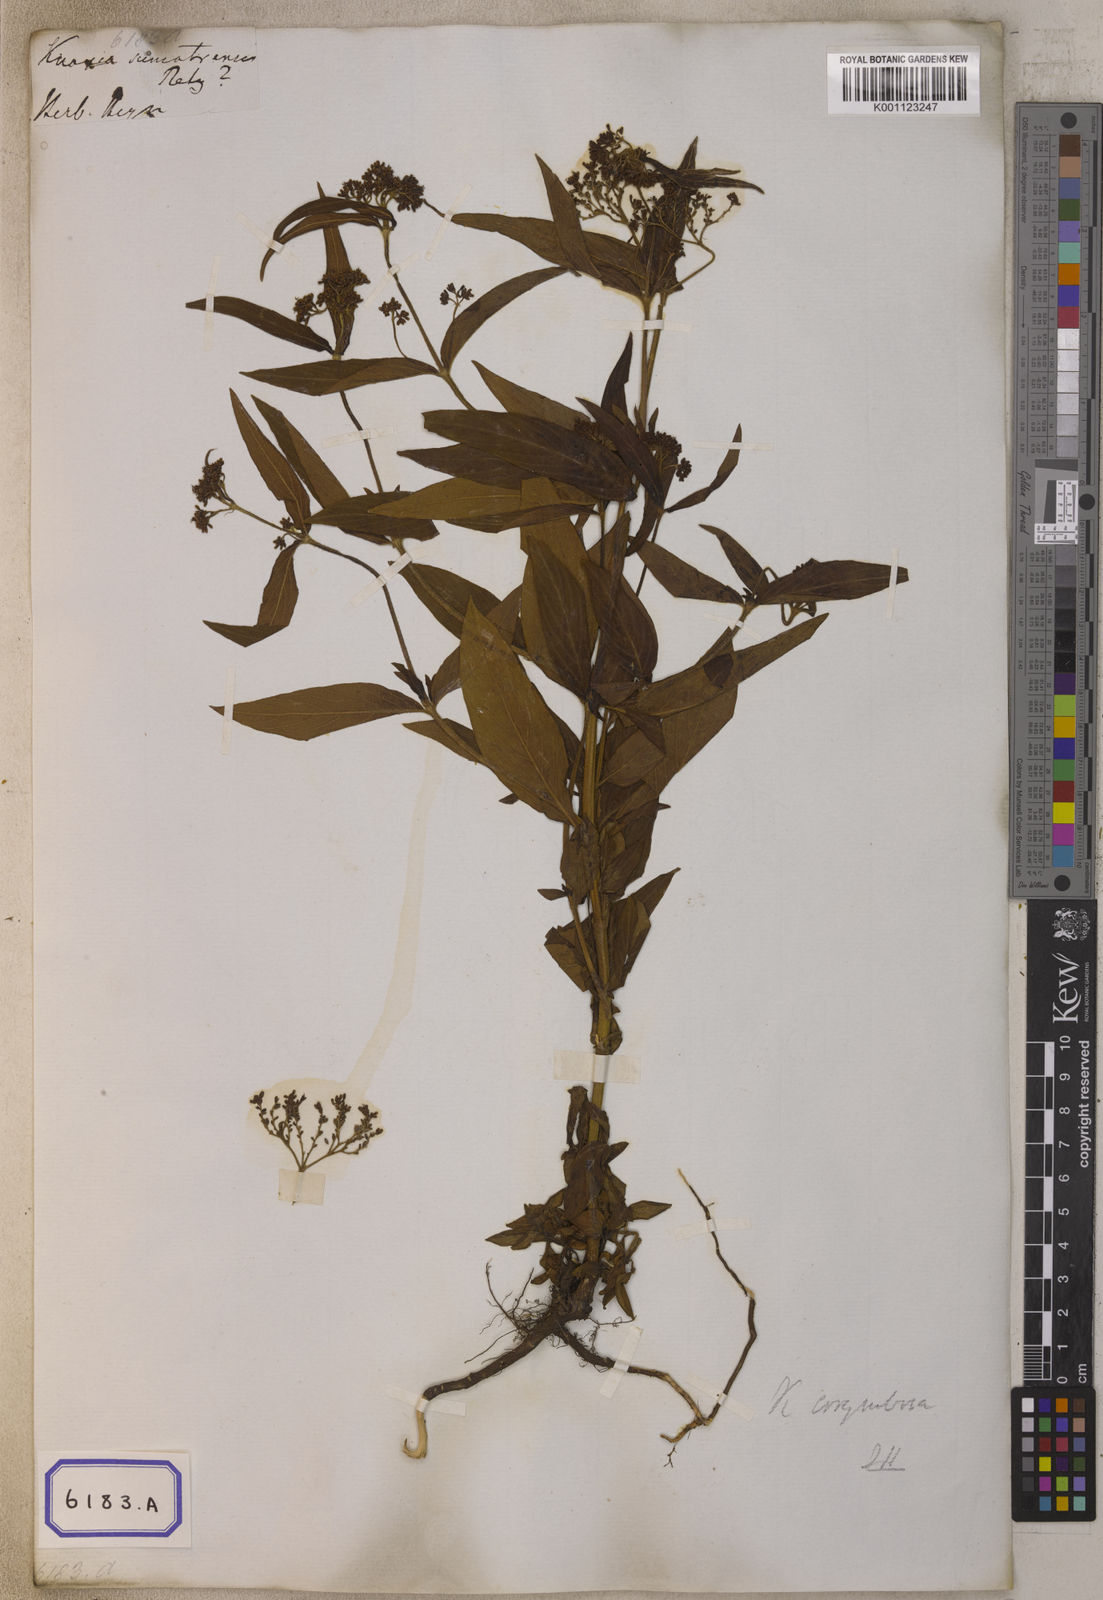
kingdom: Plantae
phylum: Tracheophyta
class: Magnoliopsida
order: Gentianales
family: Rubiaceae
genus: Knoxia
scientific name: Knoxia
